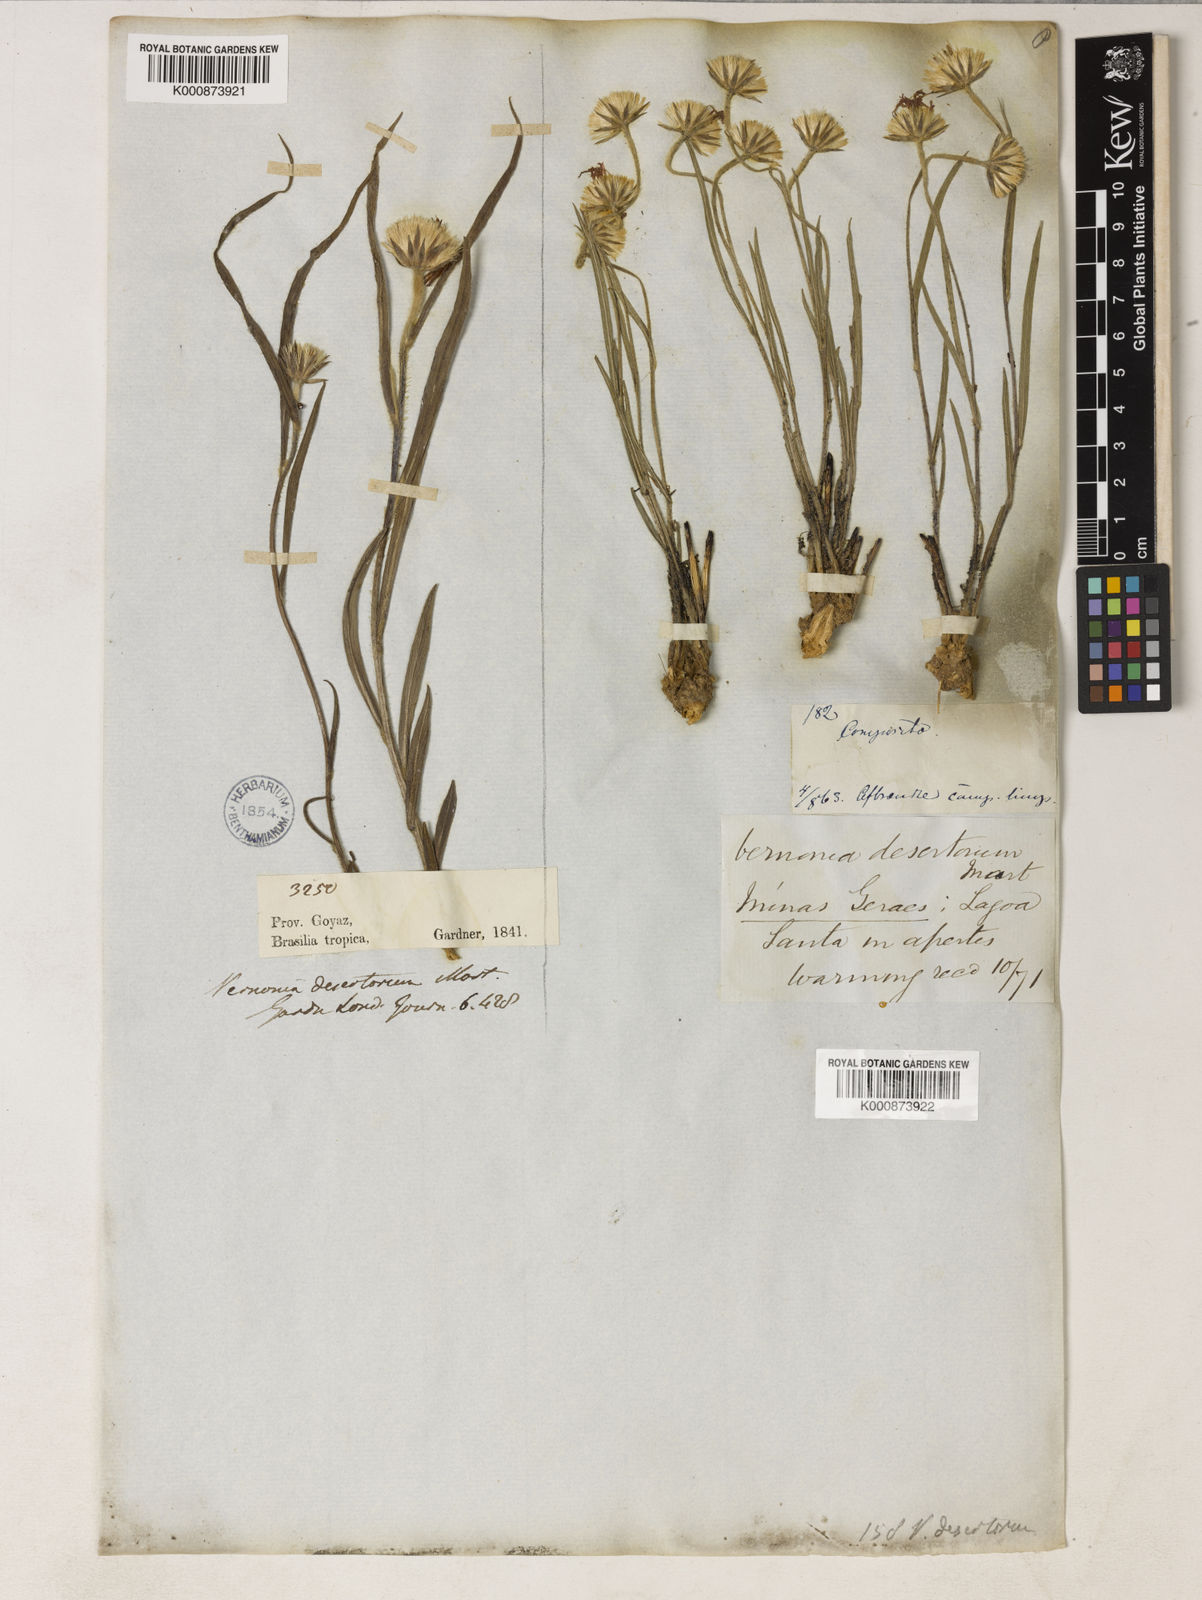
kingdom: Plantae
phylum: Tracheophyta
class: Magnoliopsida
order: Asterales
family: Asteraceae
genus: Chrysolaena
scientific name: Chrysolaena desertorum
